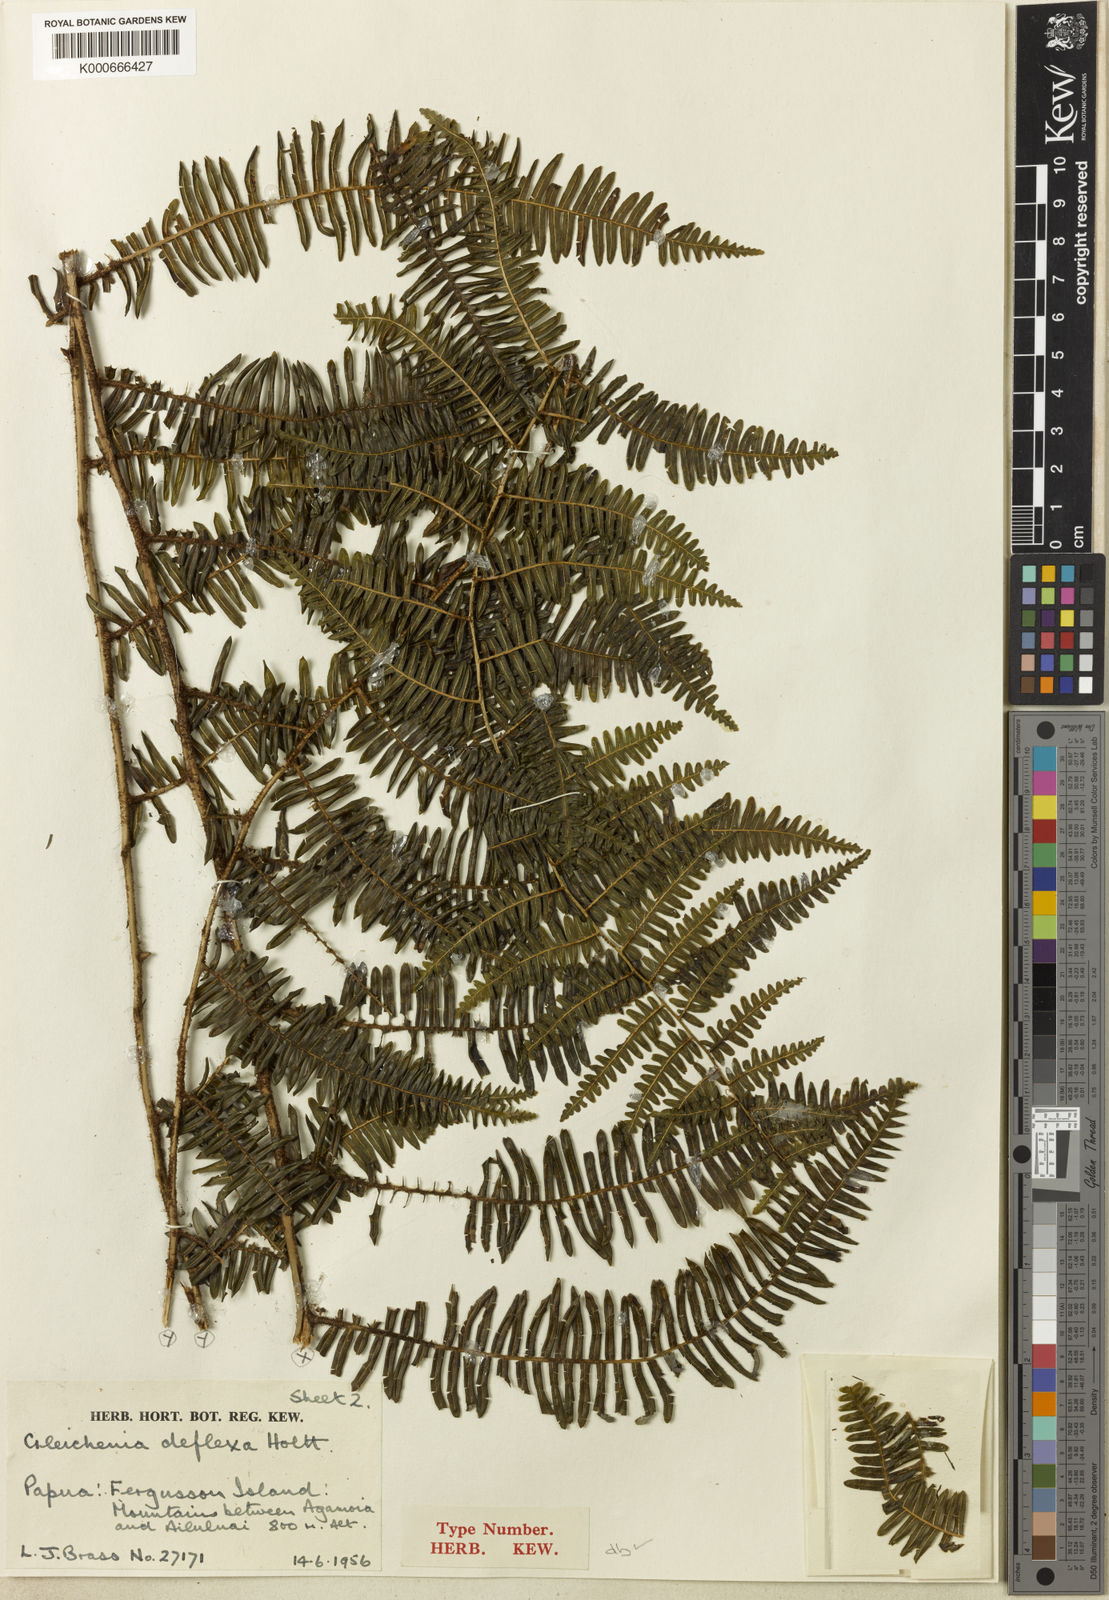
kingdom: Plantae
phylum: Tracheophyta
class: Polypodiopsida
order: Gleicheniales
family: Gleicheniaceae
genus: Diplopterygium
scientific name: Diplopterygium deflexum
